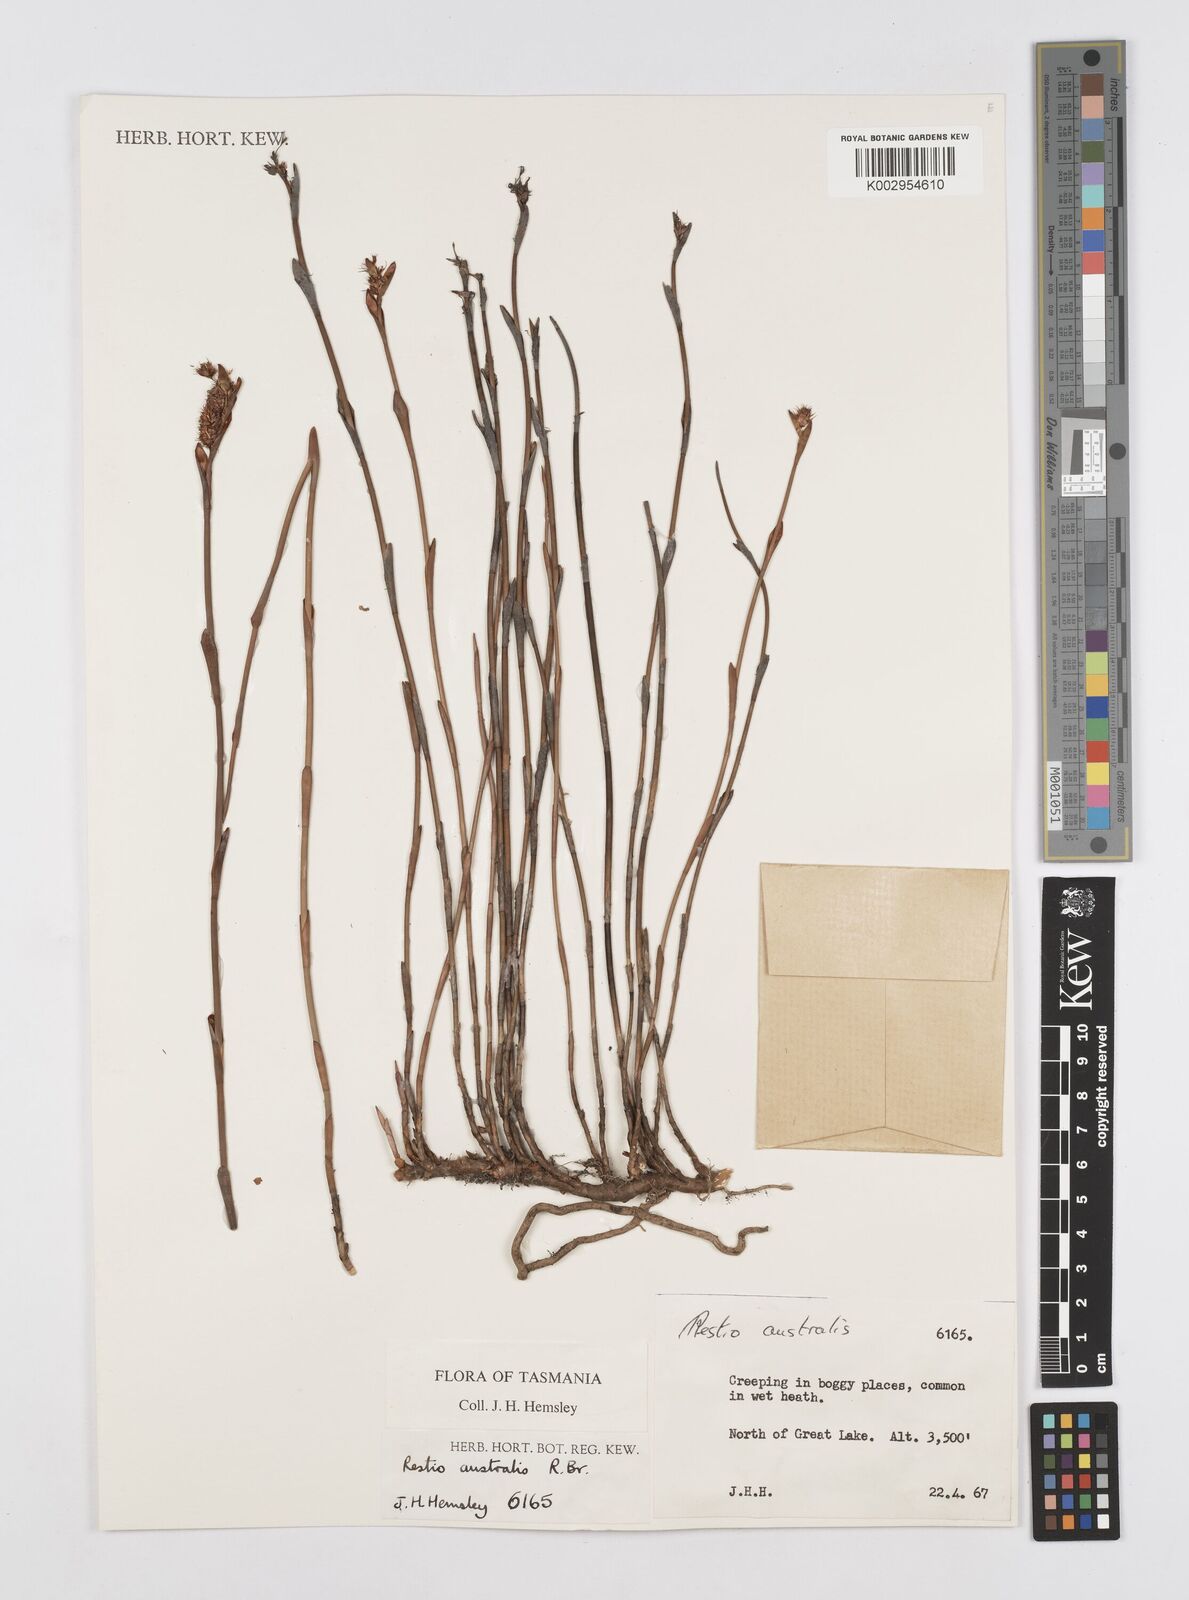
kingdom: Plantae
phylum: Tracheophyta
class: Liliopsida
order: Poales
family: Restionaceae
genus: Baloskion
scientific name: Baloskion australe
